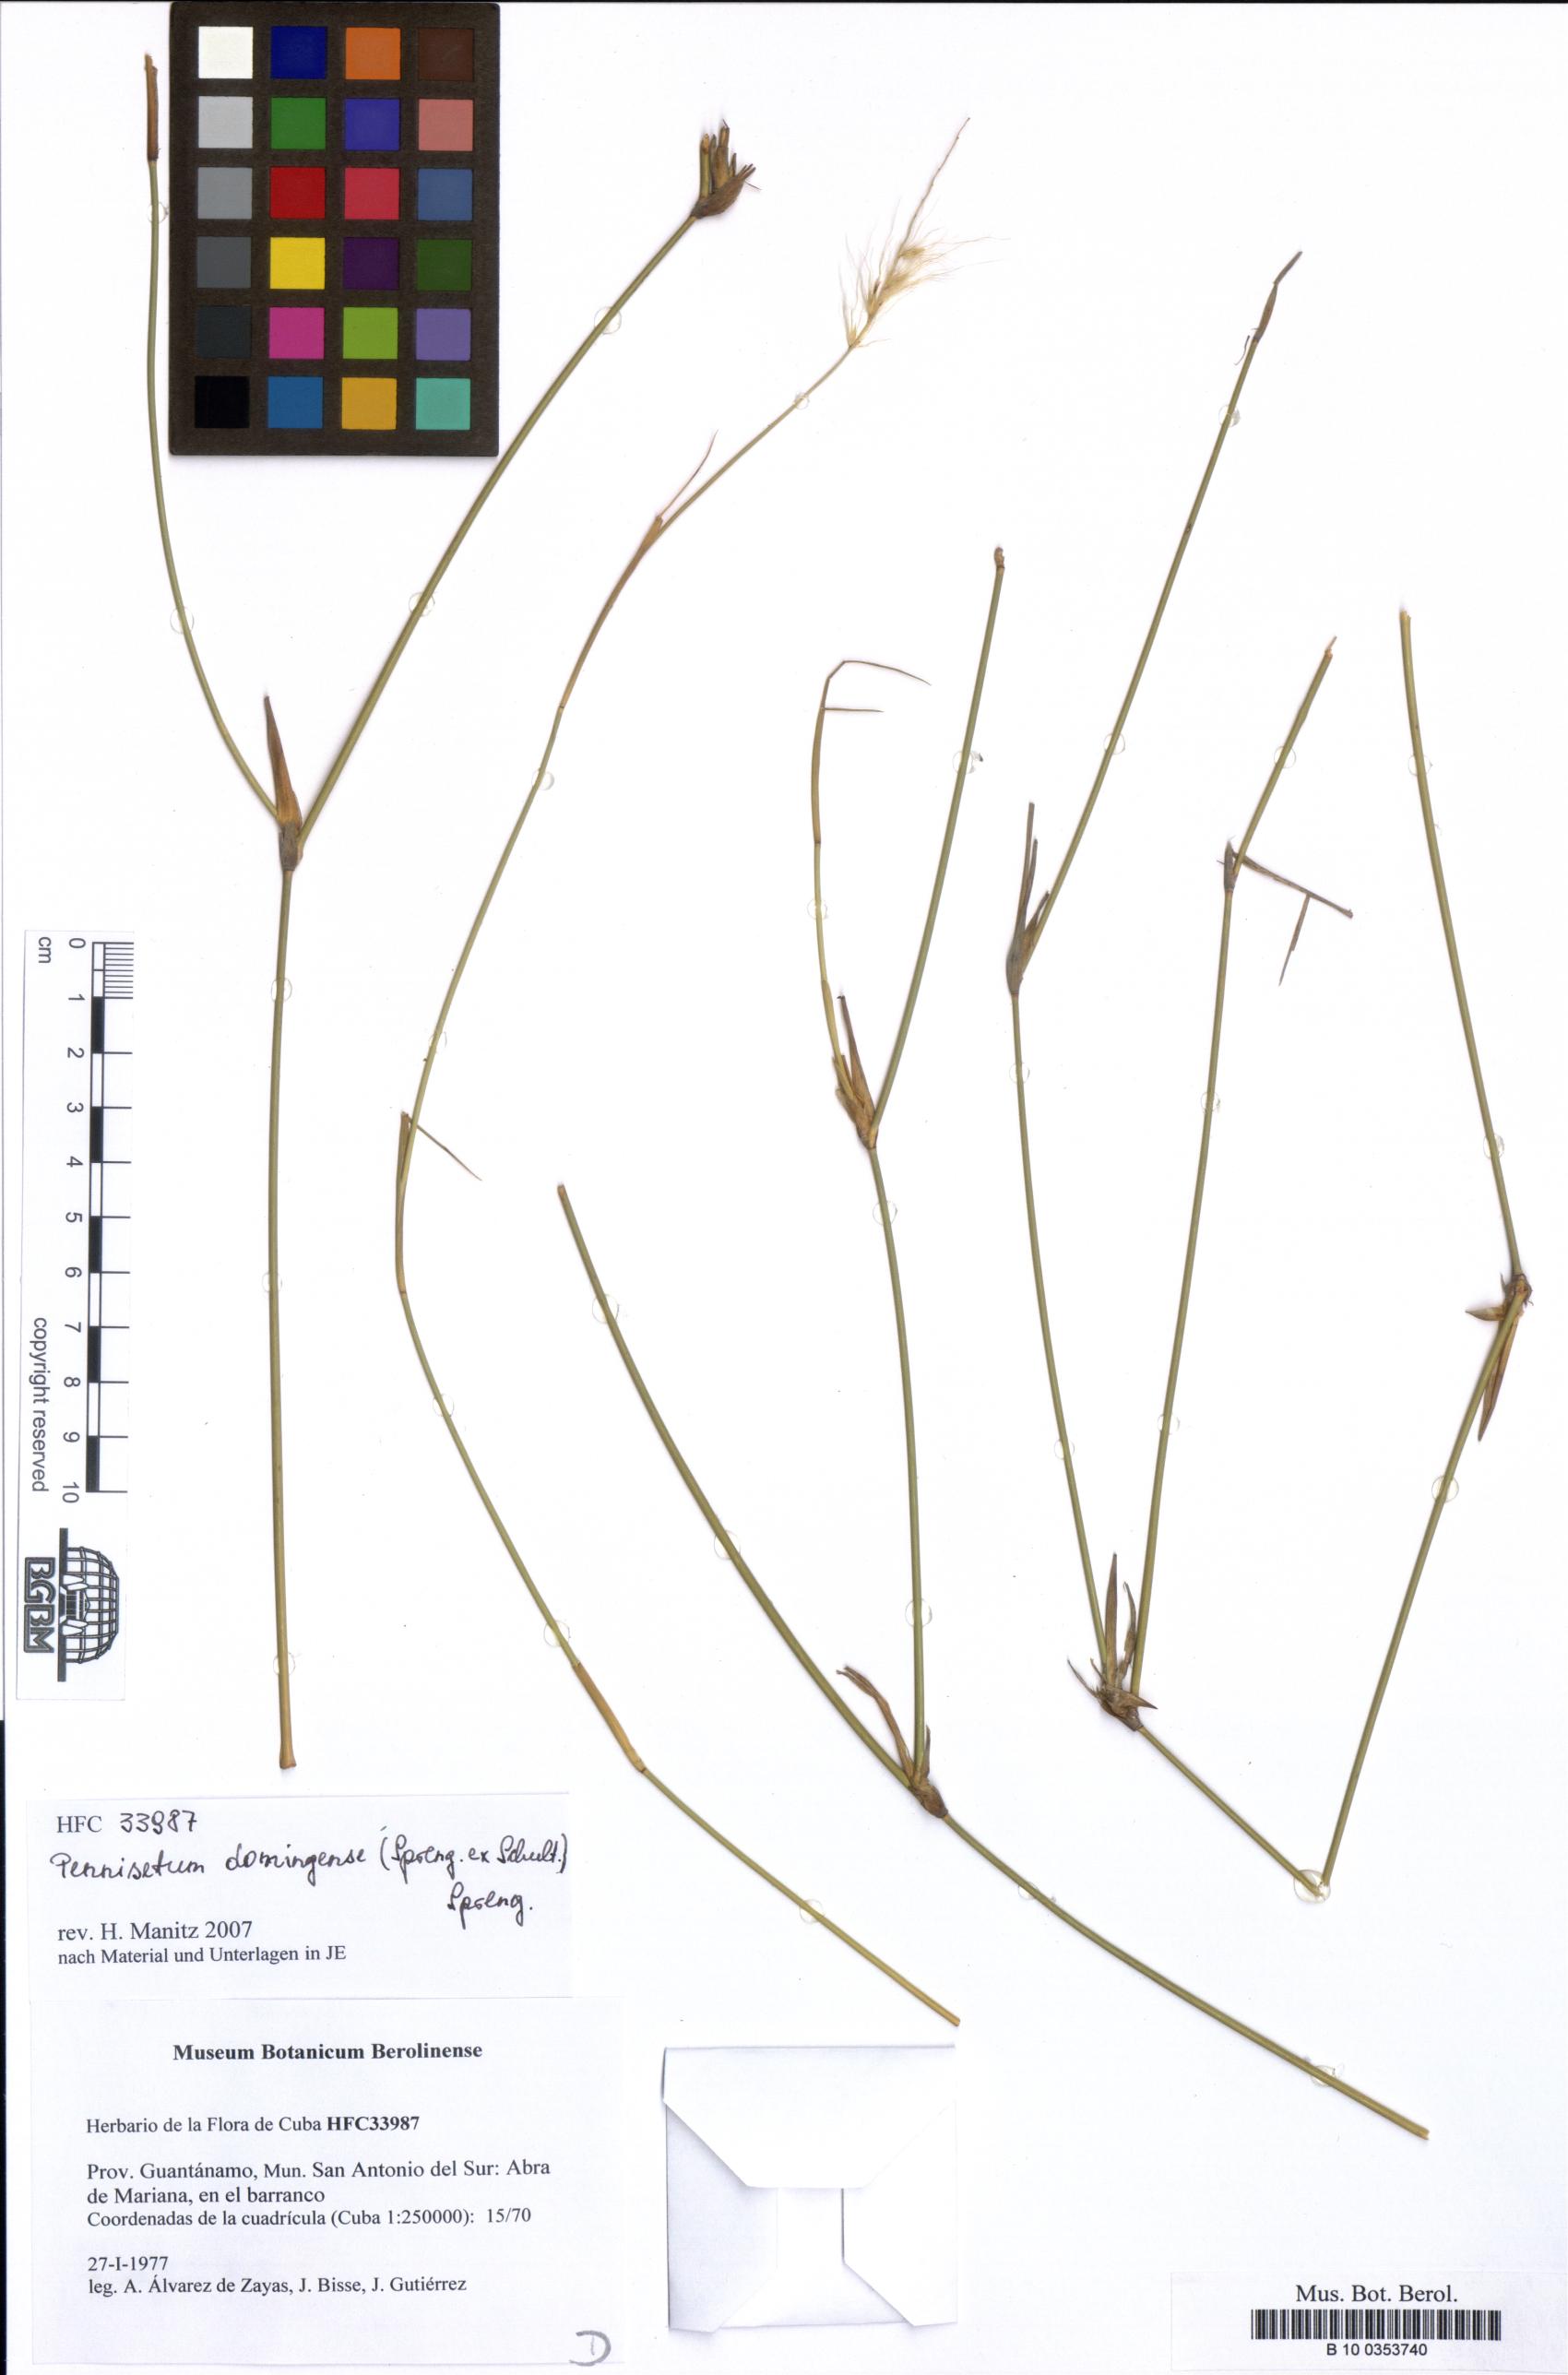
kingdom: Plantae
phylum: Tracheophyta
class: Liliopsida
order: Poales
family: Poaceae
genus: Cenchrus
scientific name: Cenchrus domingensis
